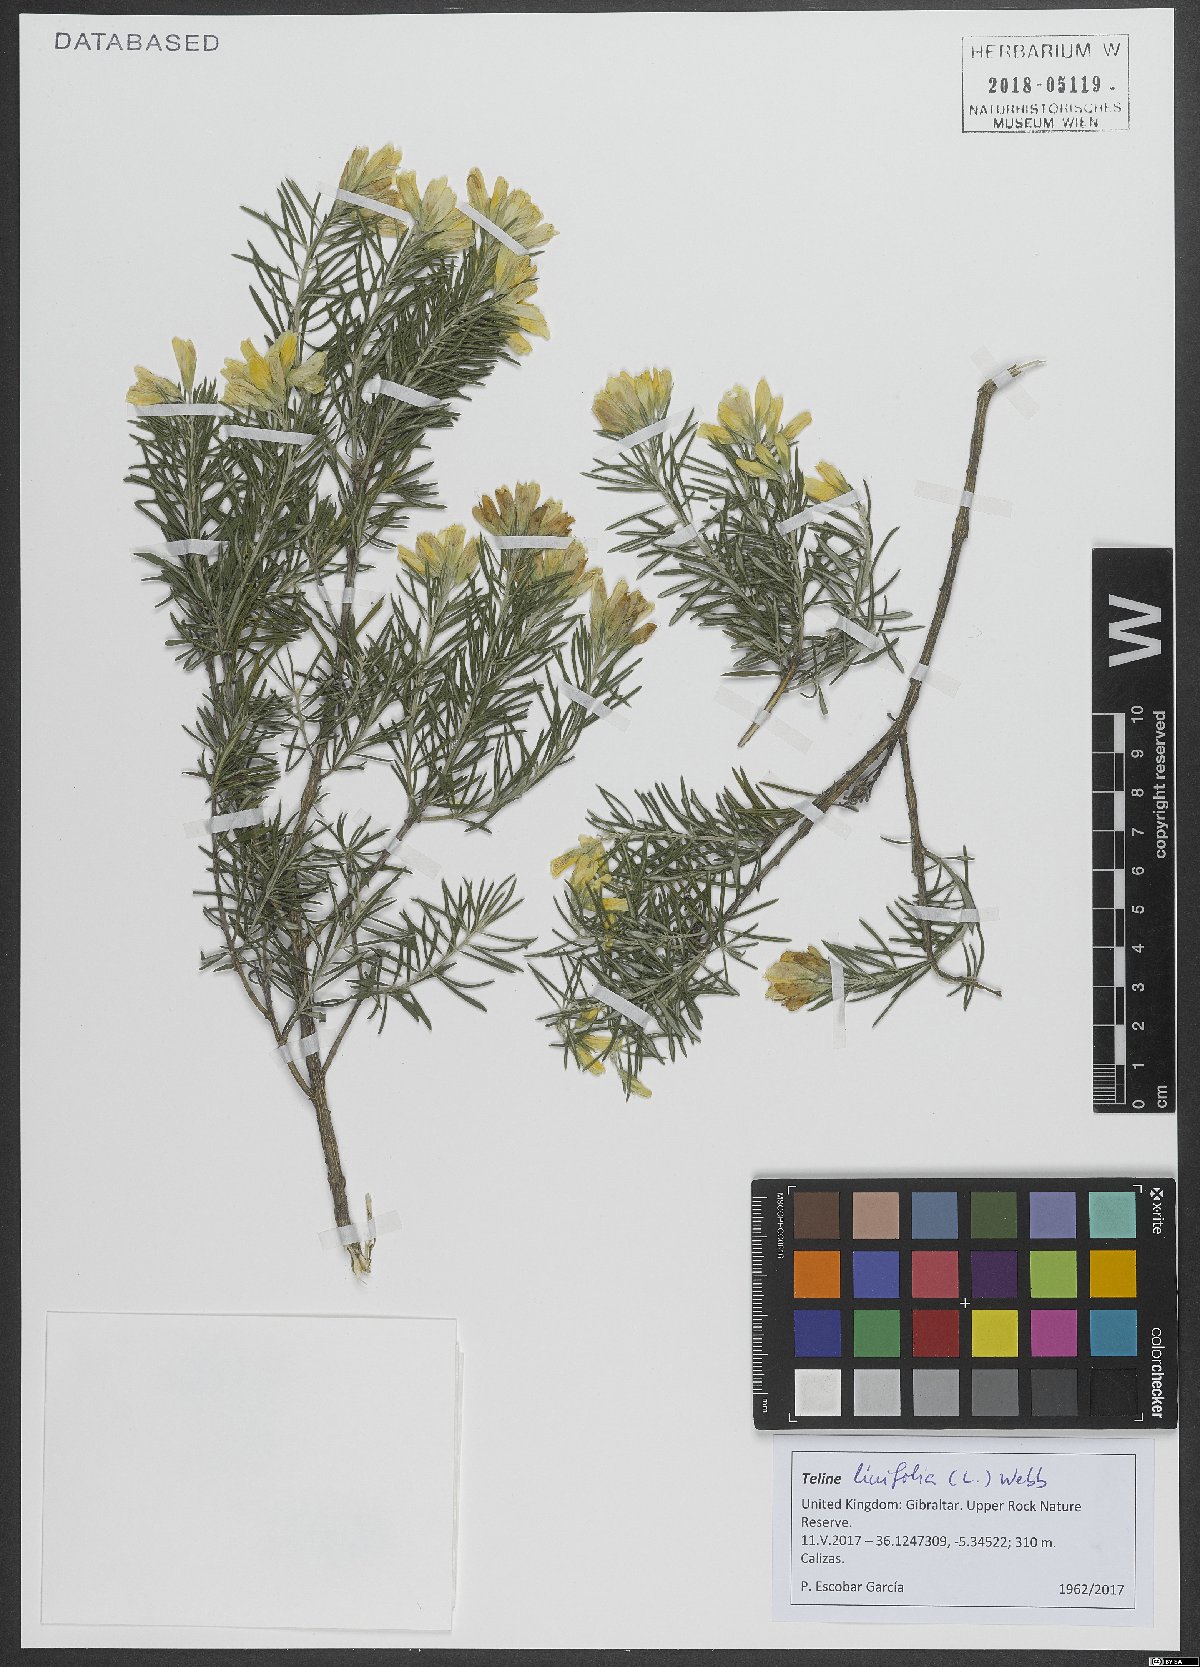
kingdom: Plantae
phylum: Tracheophyta
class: Magnoliopsida
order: Fabales
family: Fabaceae
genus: Genista
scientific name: Genista linifolia
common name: Mediterranean broom
